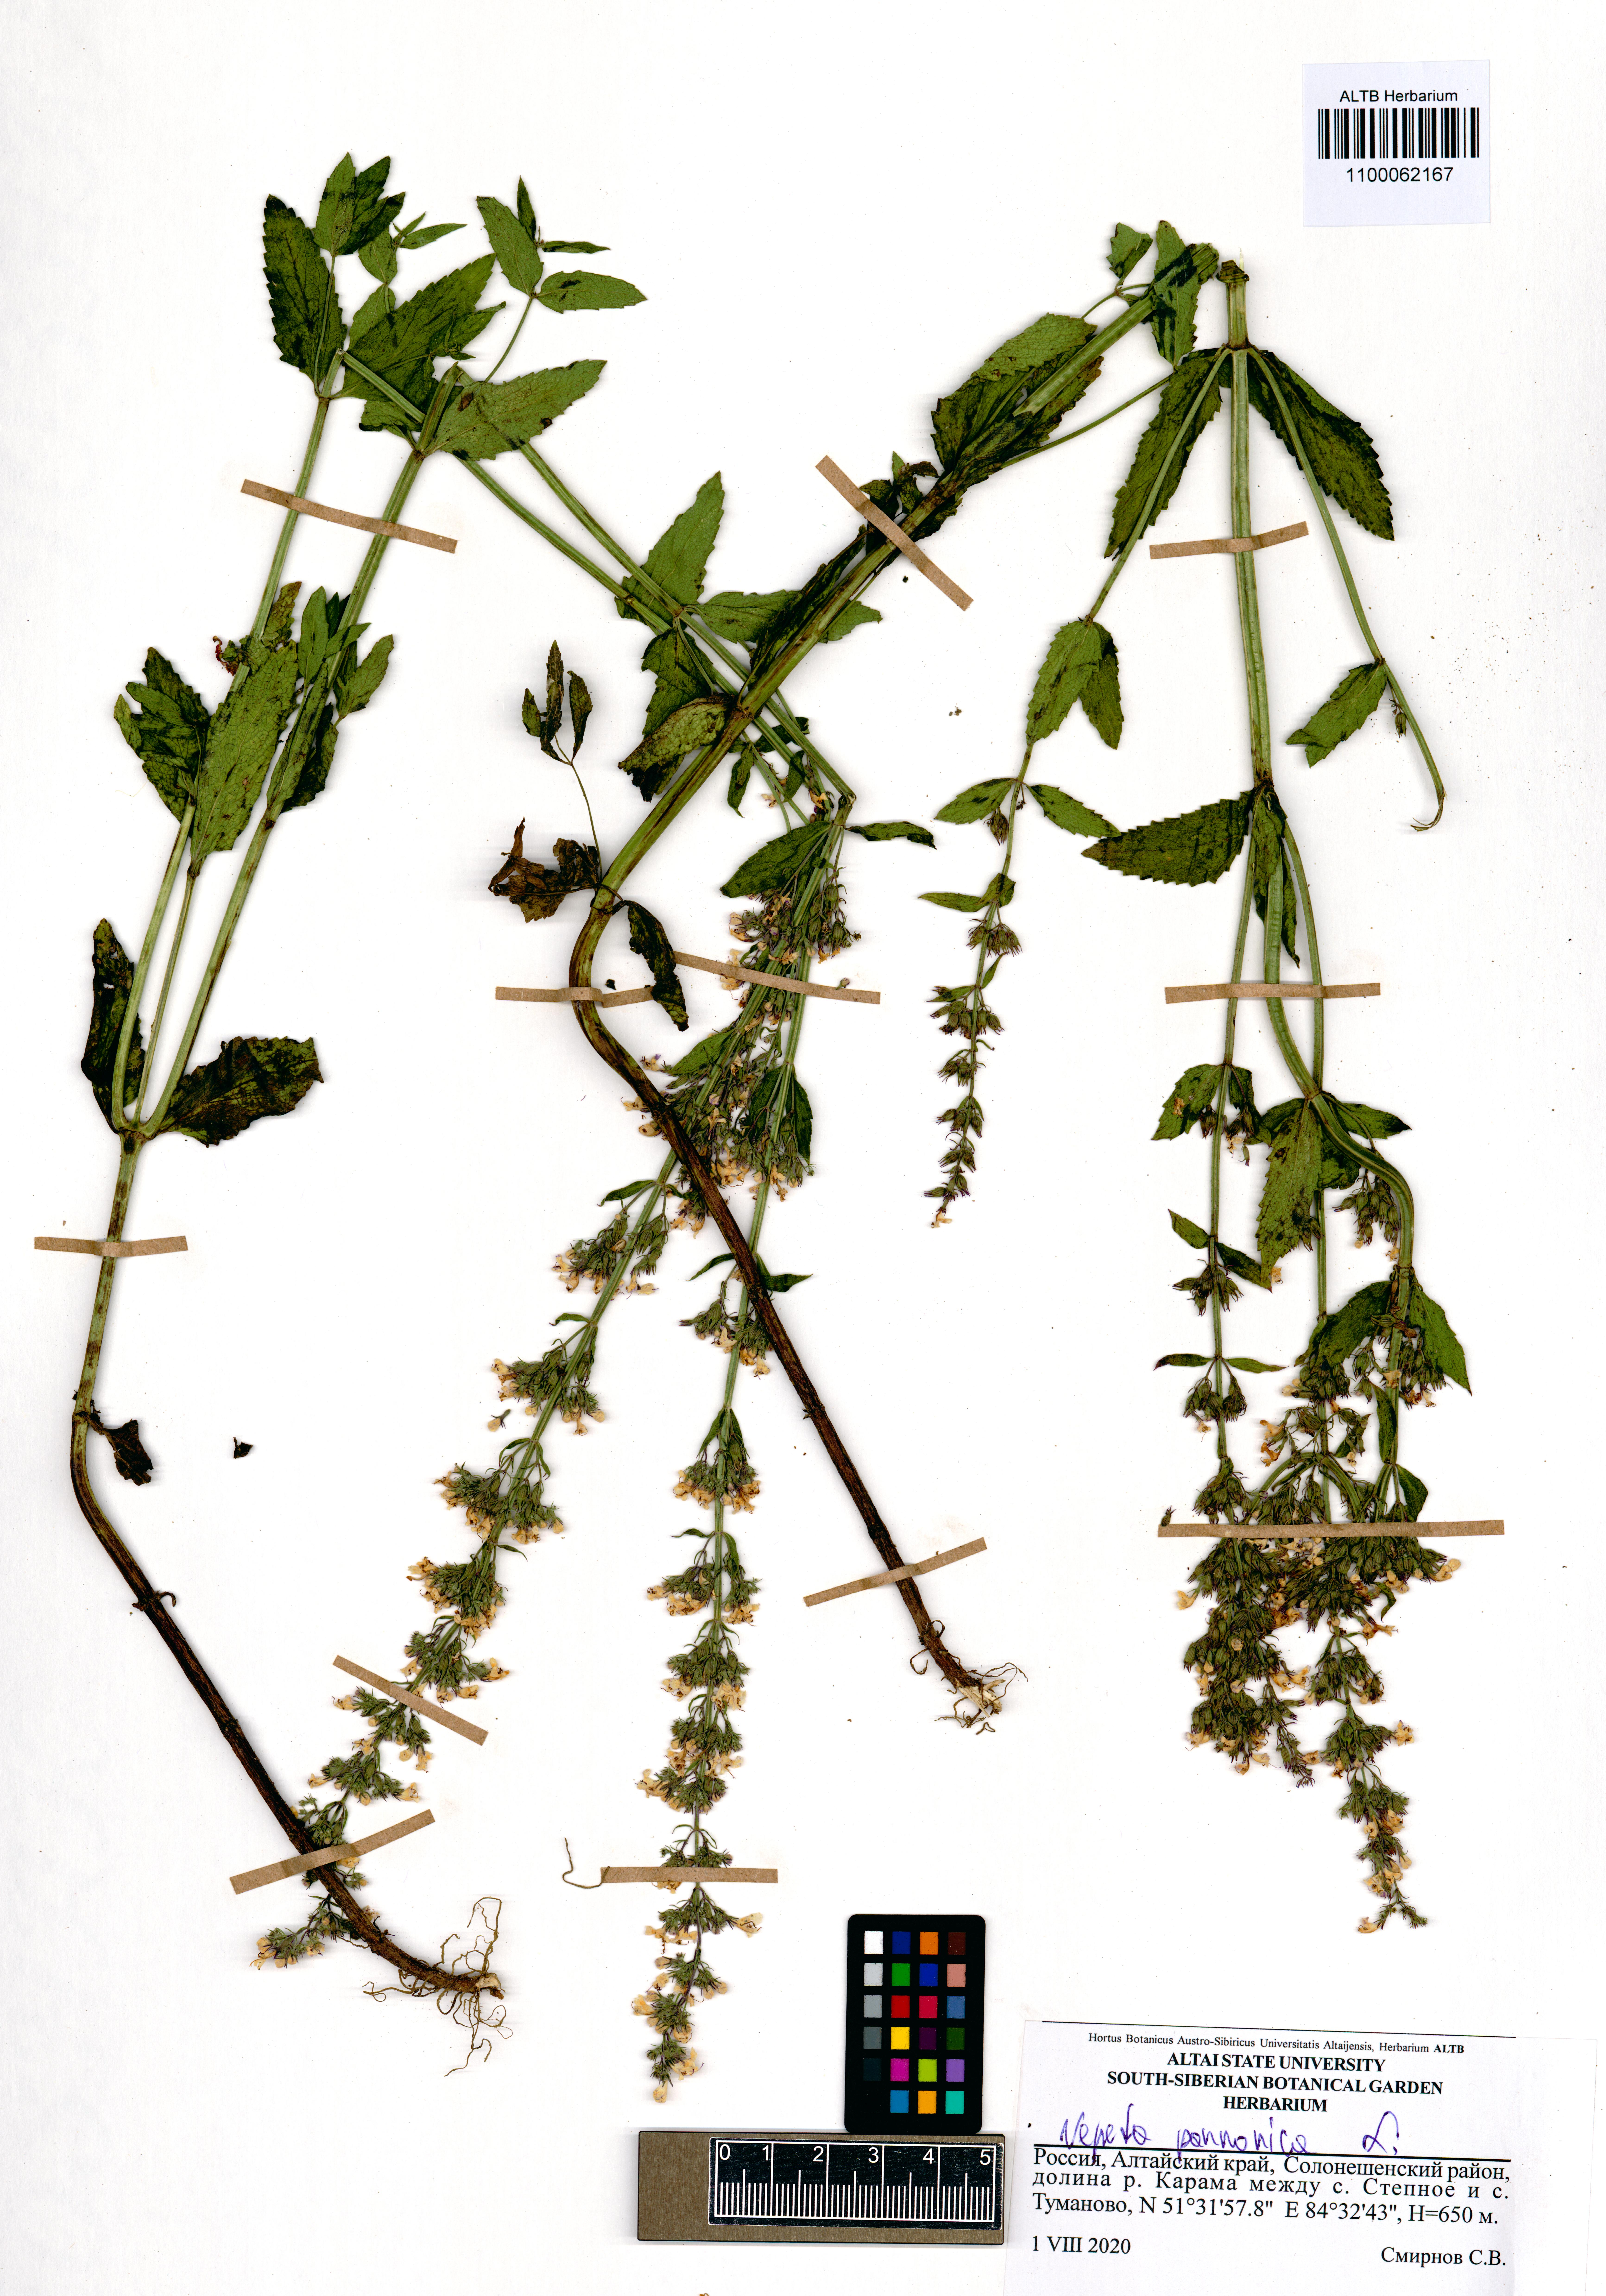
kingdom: Plantae
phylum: Tracheophyta
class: Magnoliopsida
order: Lamiales
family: Lamiaceae
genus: Nepeta
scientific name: Nepeta nuda
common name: Hairless catmint
